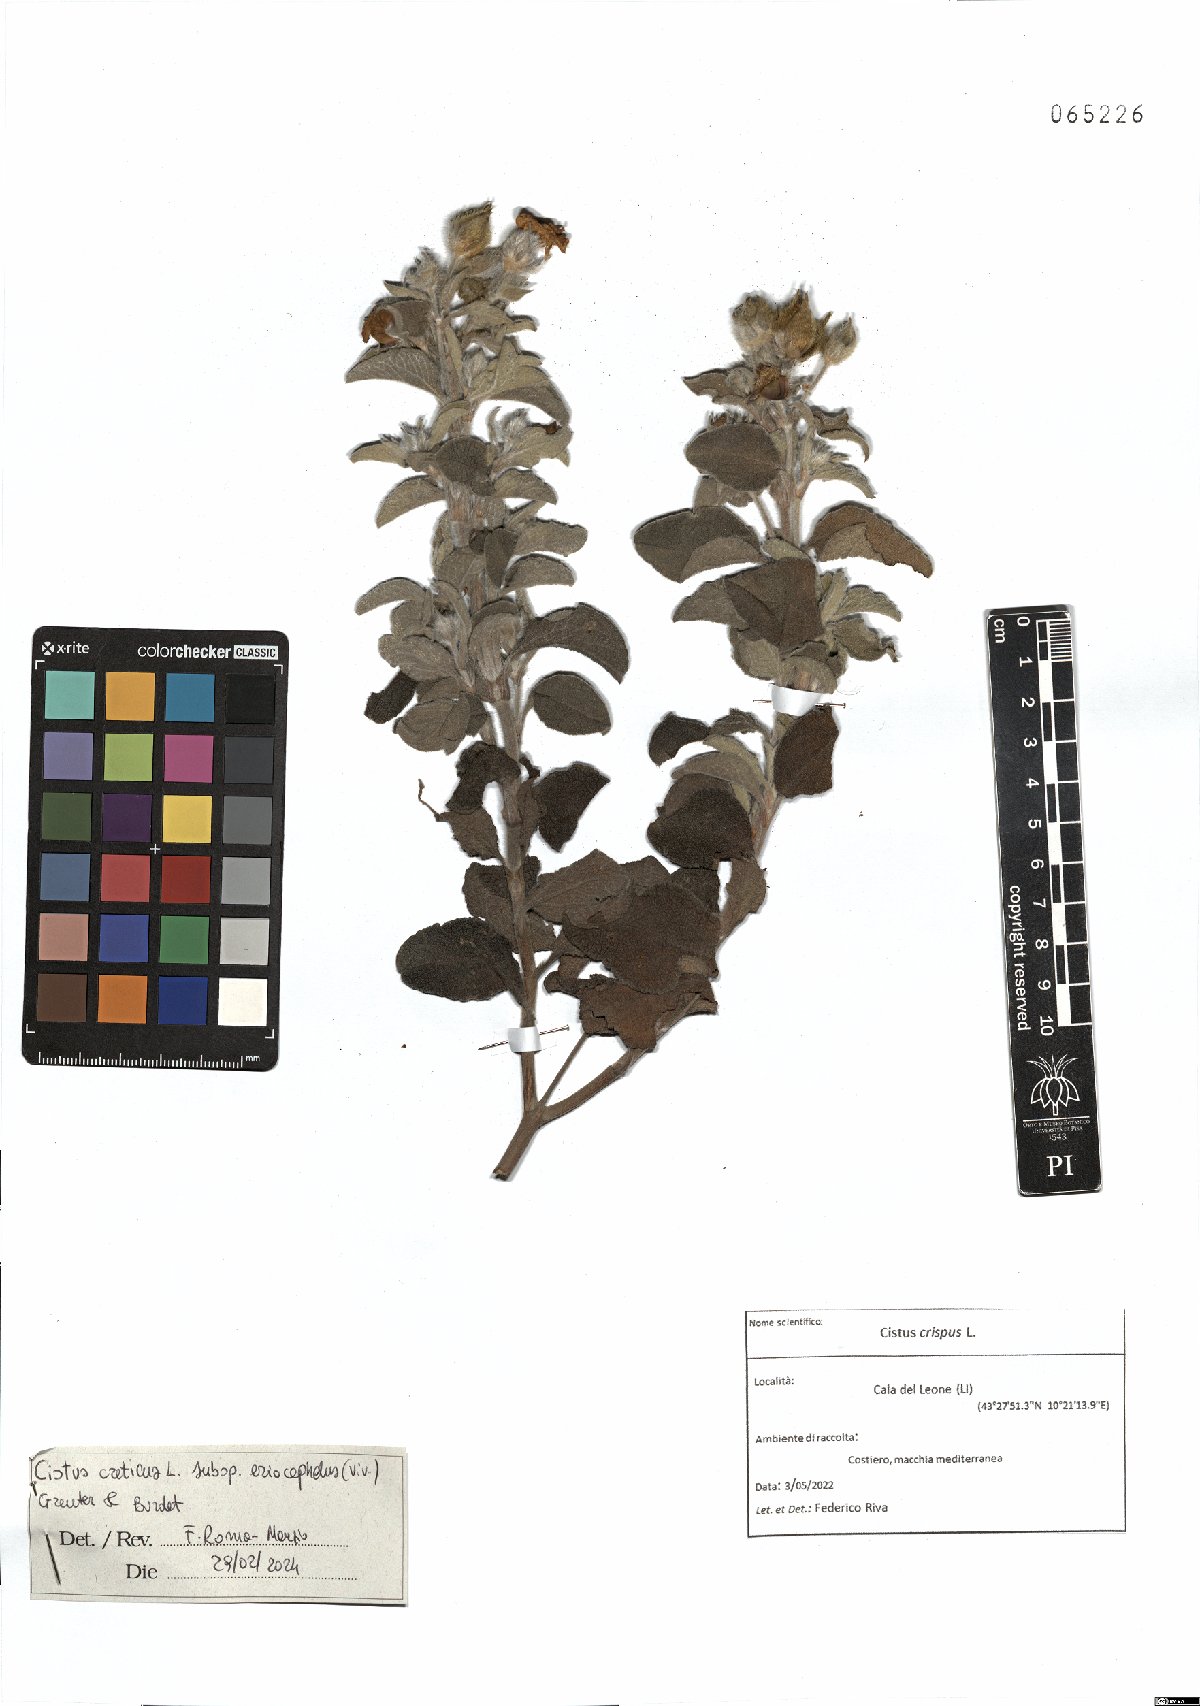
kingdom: Plantae
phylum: Tracheophyta
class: Magnoliopsida
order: Malvales
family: Cistaceae
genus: Cistus
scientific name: Cistus tauricus
